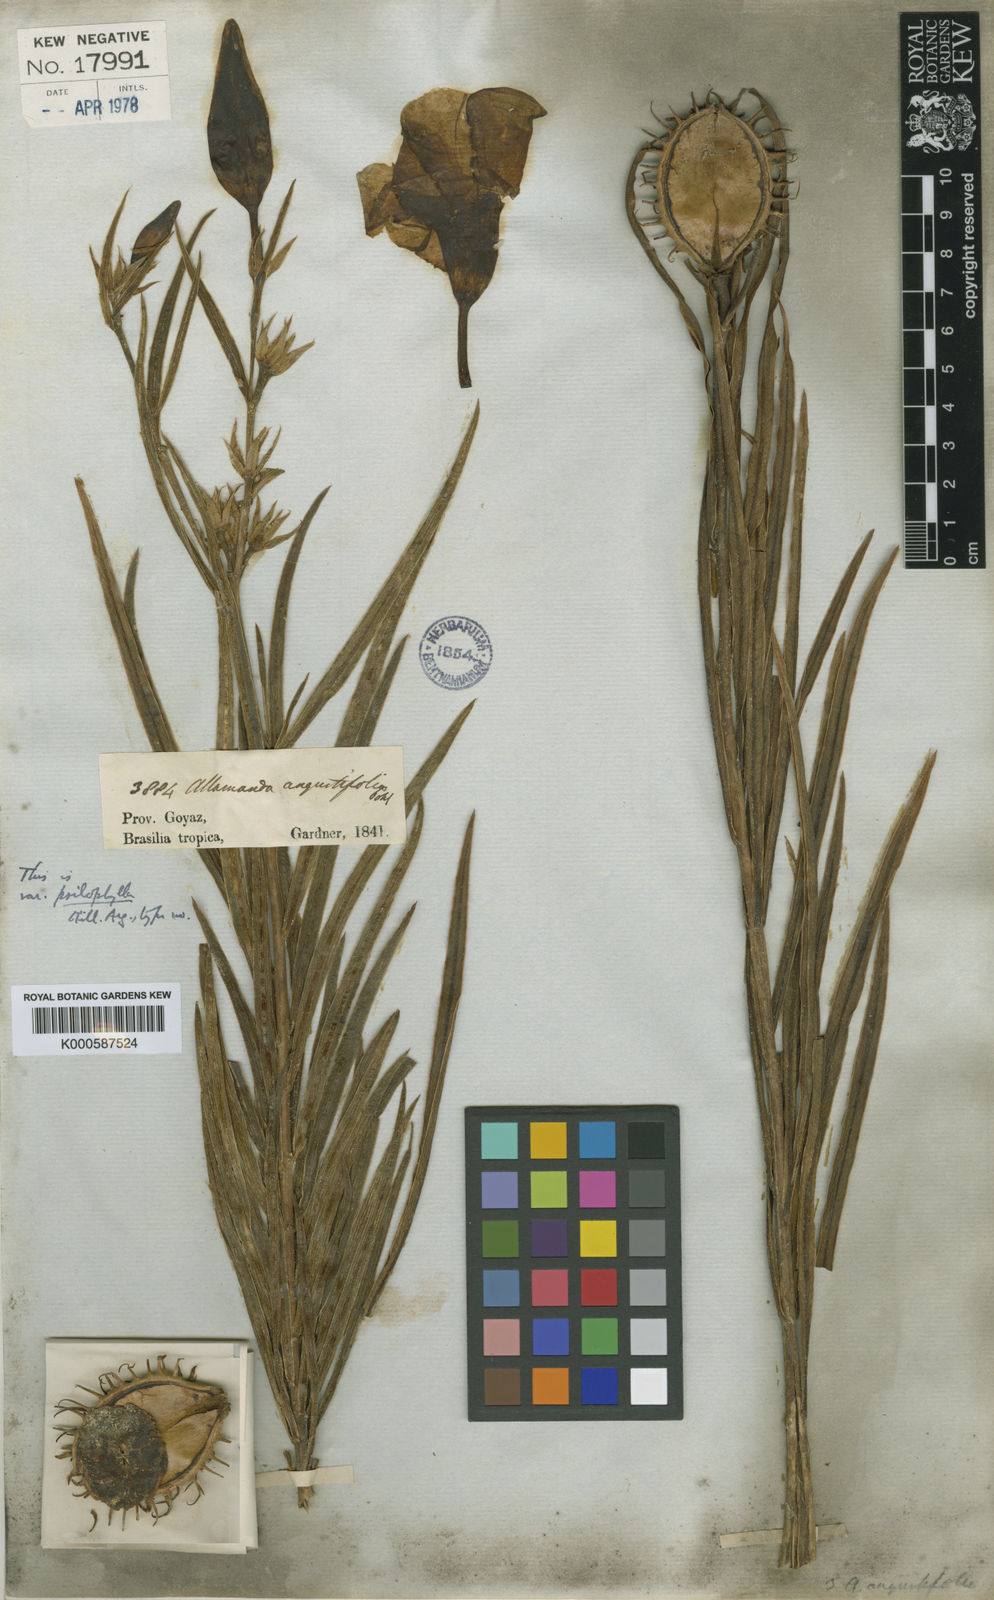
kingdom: Plantae
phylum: Tracheophyta
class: Magnoliopsida
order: Gentianales
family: Apocynaceae
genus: Allamanda
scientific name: Allamanda
